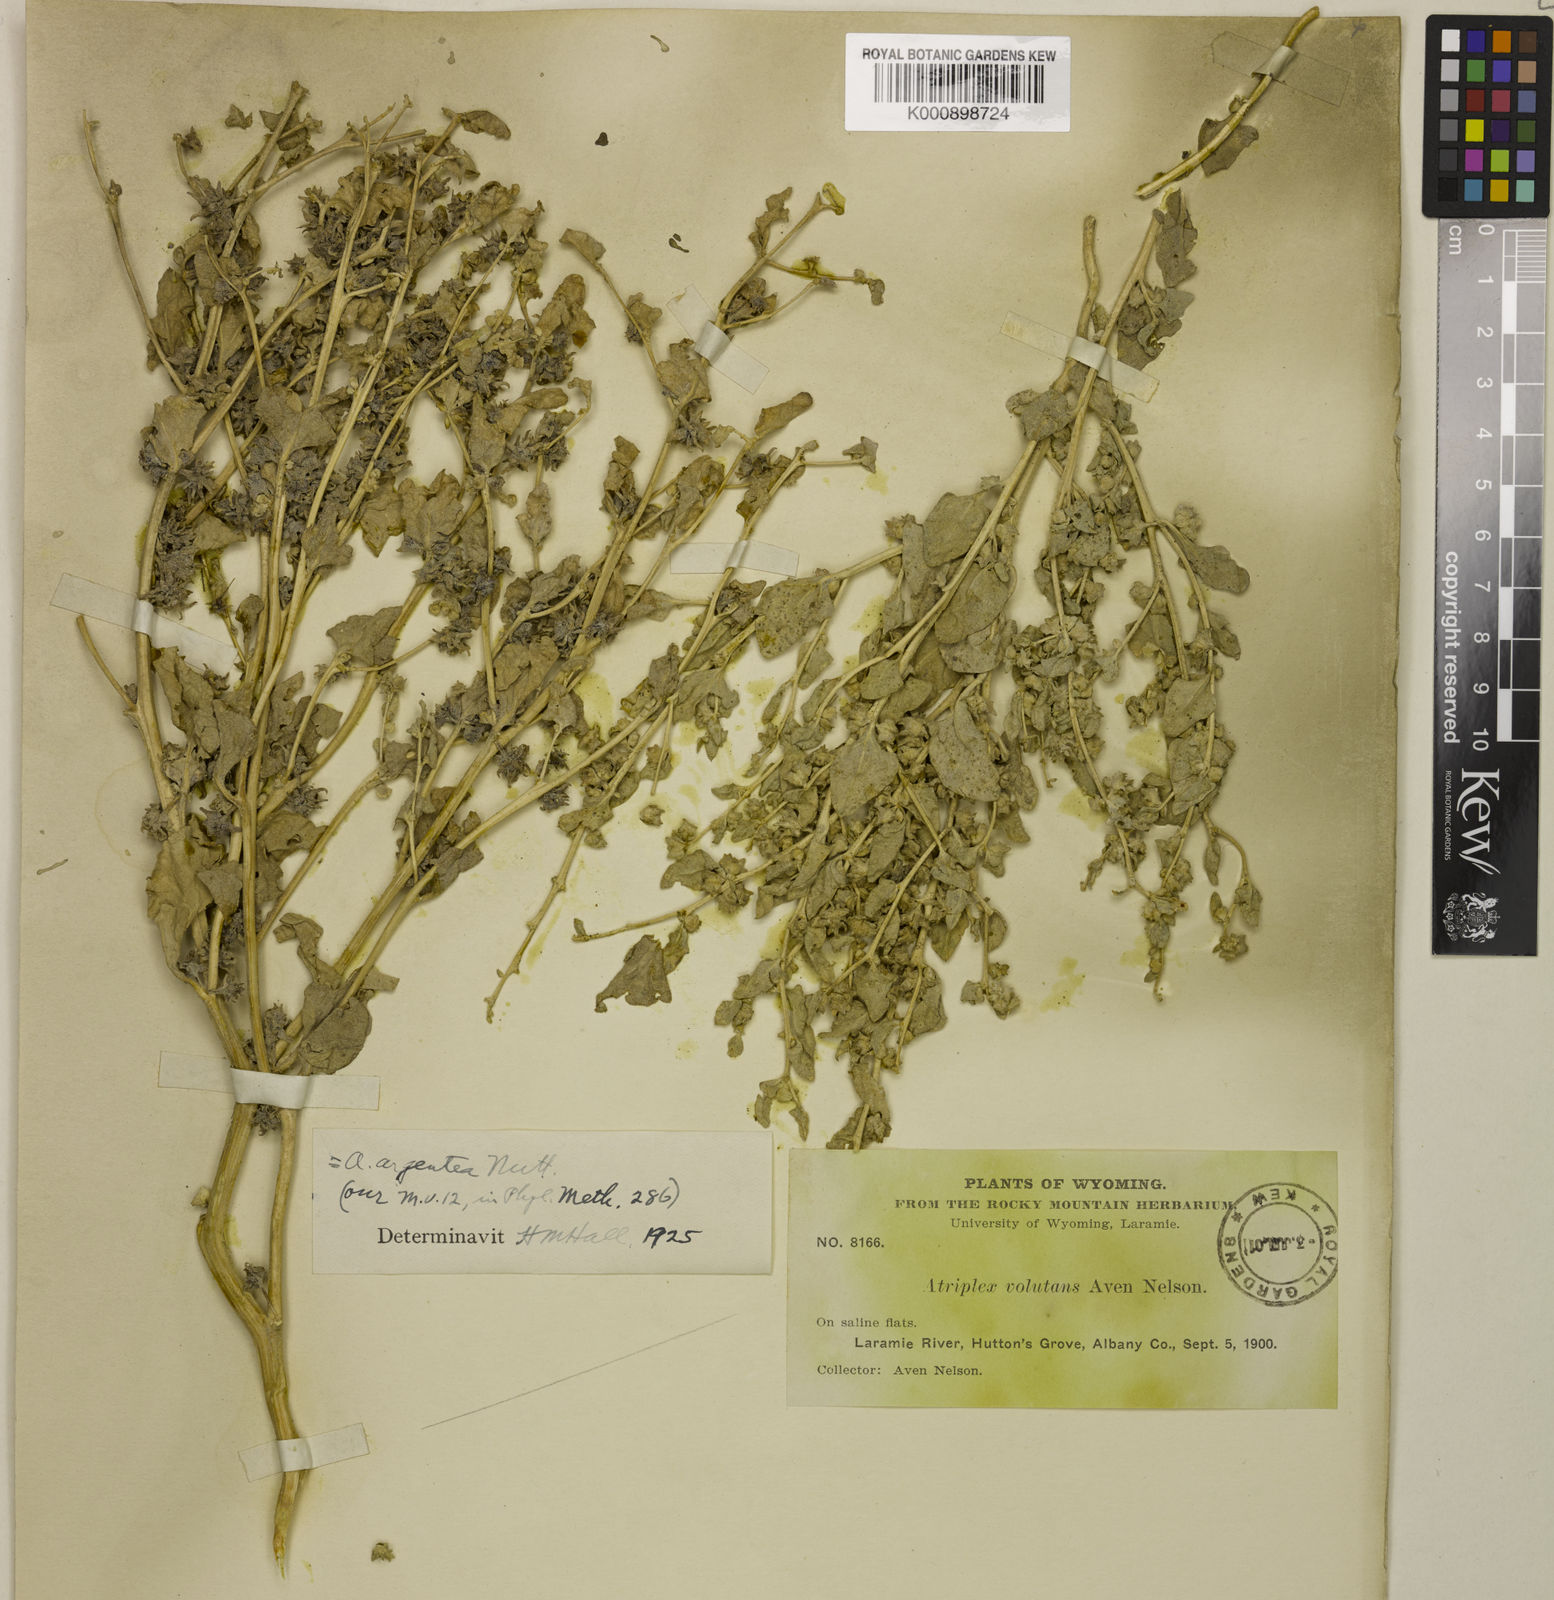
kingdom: Plantae
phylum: Tracheophyta
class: Magnoliopsida
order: Caryophyllales
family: Amaranthaceae
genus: Atriplex
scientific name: Atriplex argentea
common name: Silverscale
